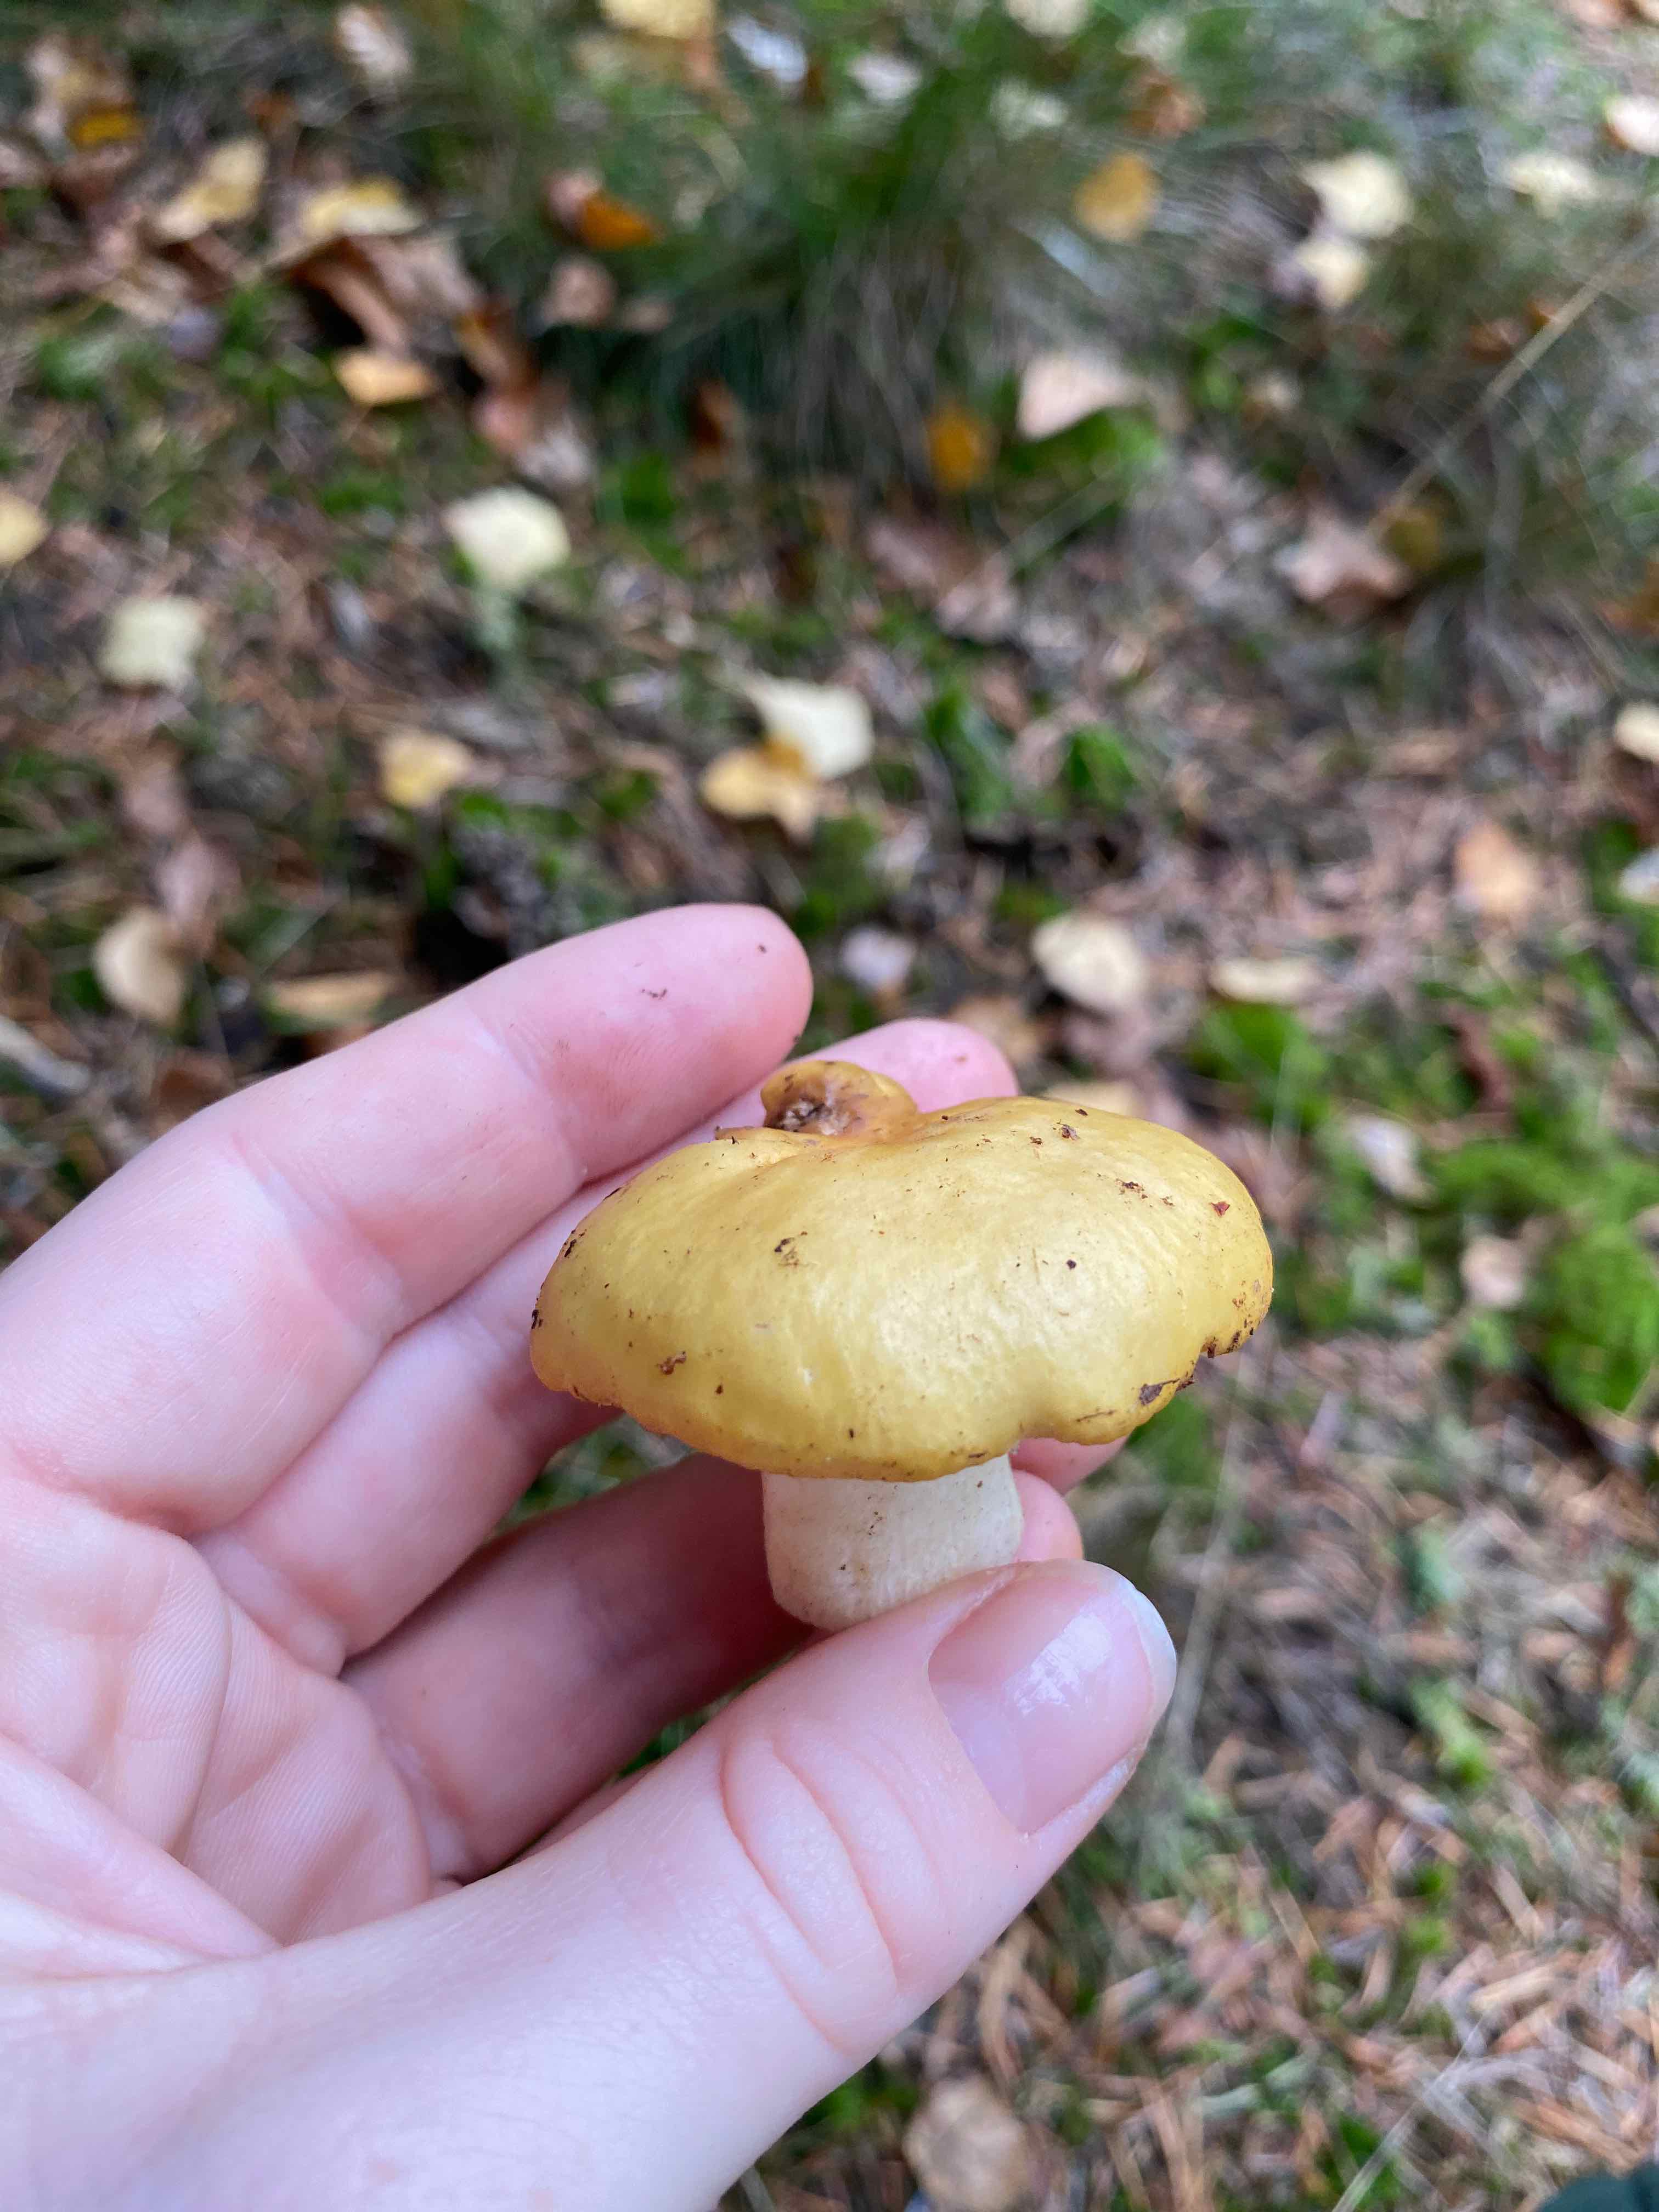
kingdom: Fungi
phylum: Basidiomycota
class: Agaricomycetes
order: Russulales
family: Russulaceae
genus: Russula
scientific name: Russula ochroleuca
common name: okkergul skørhat
